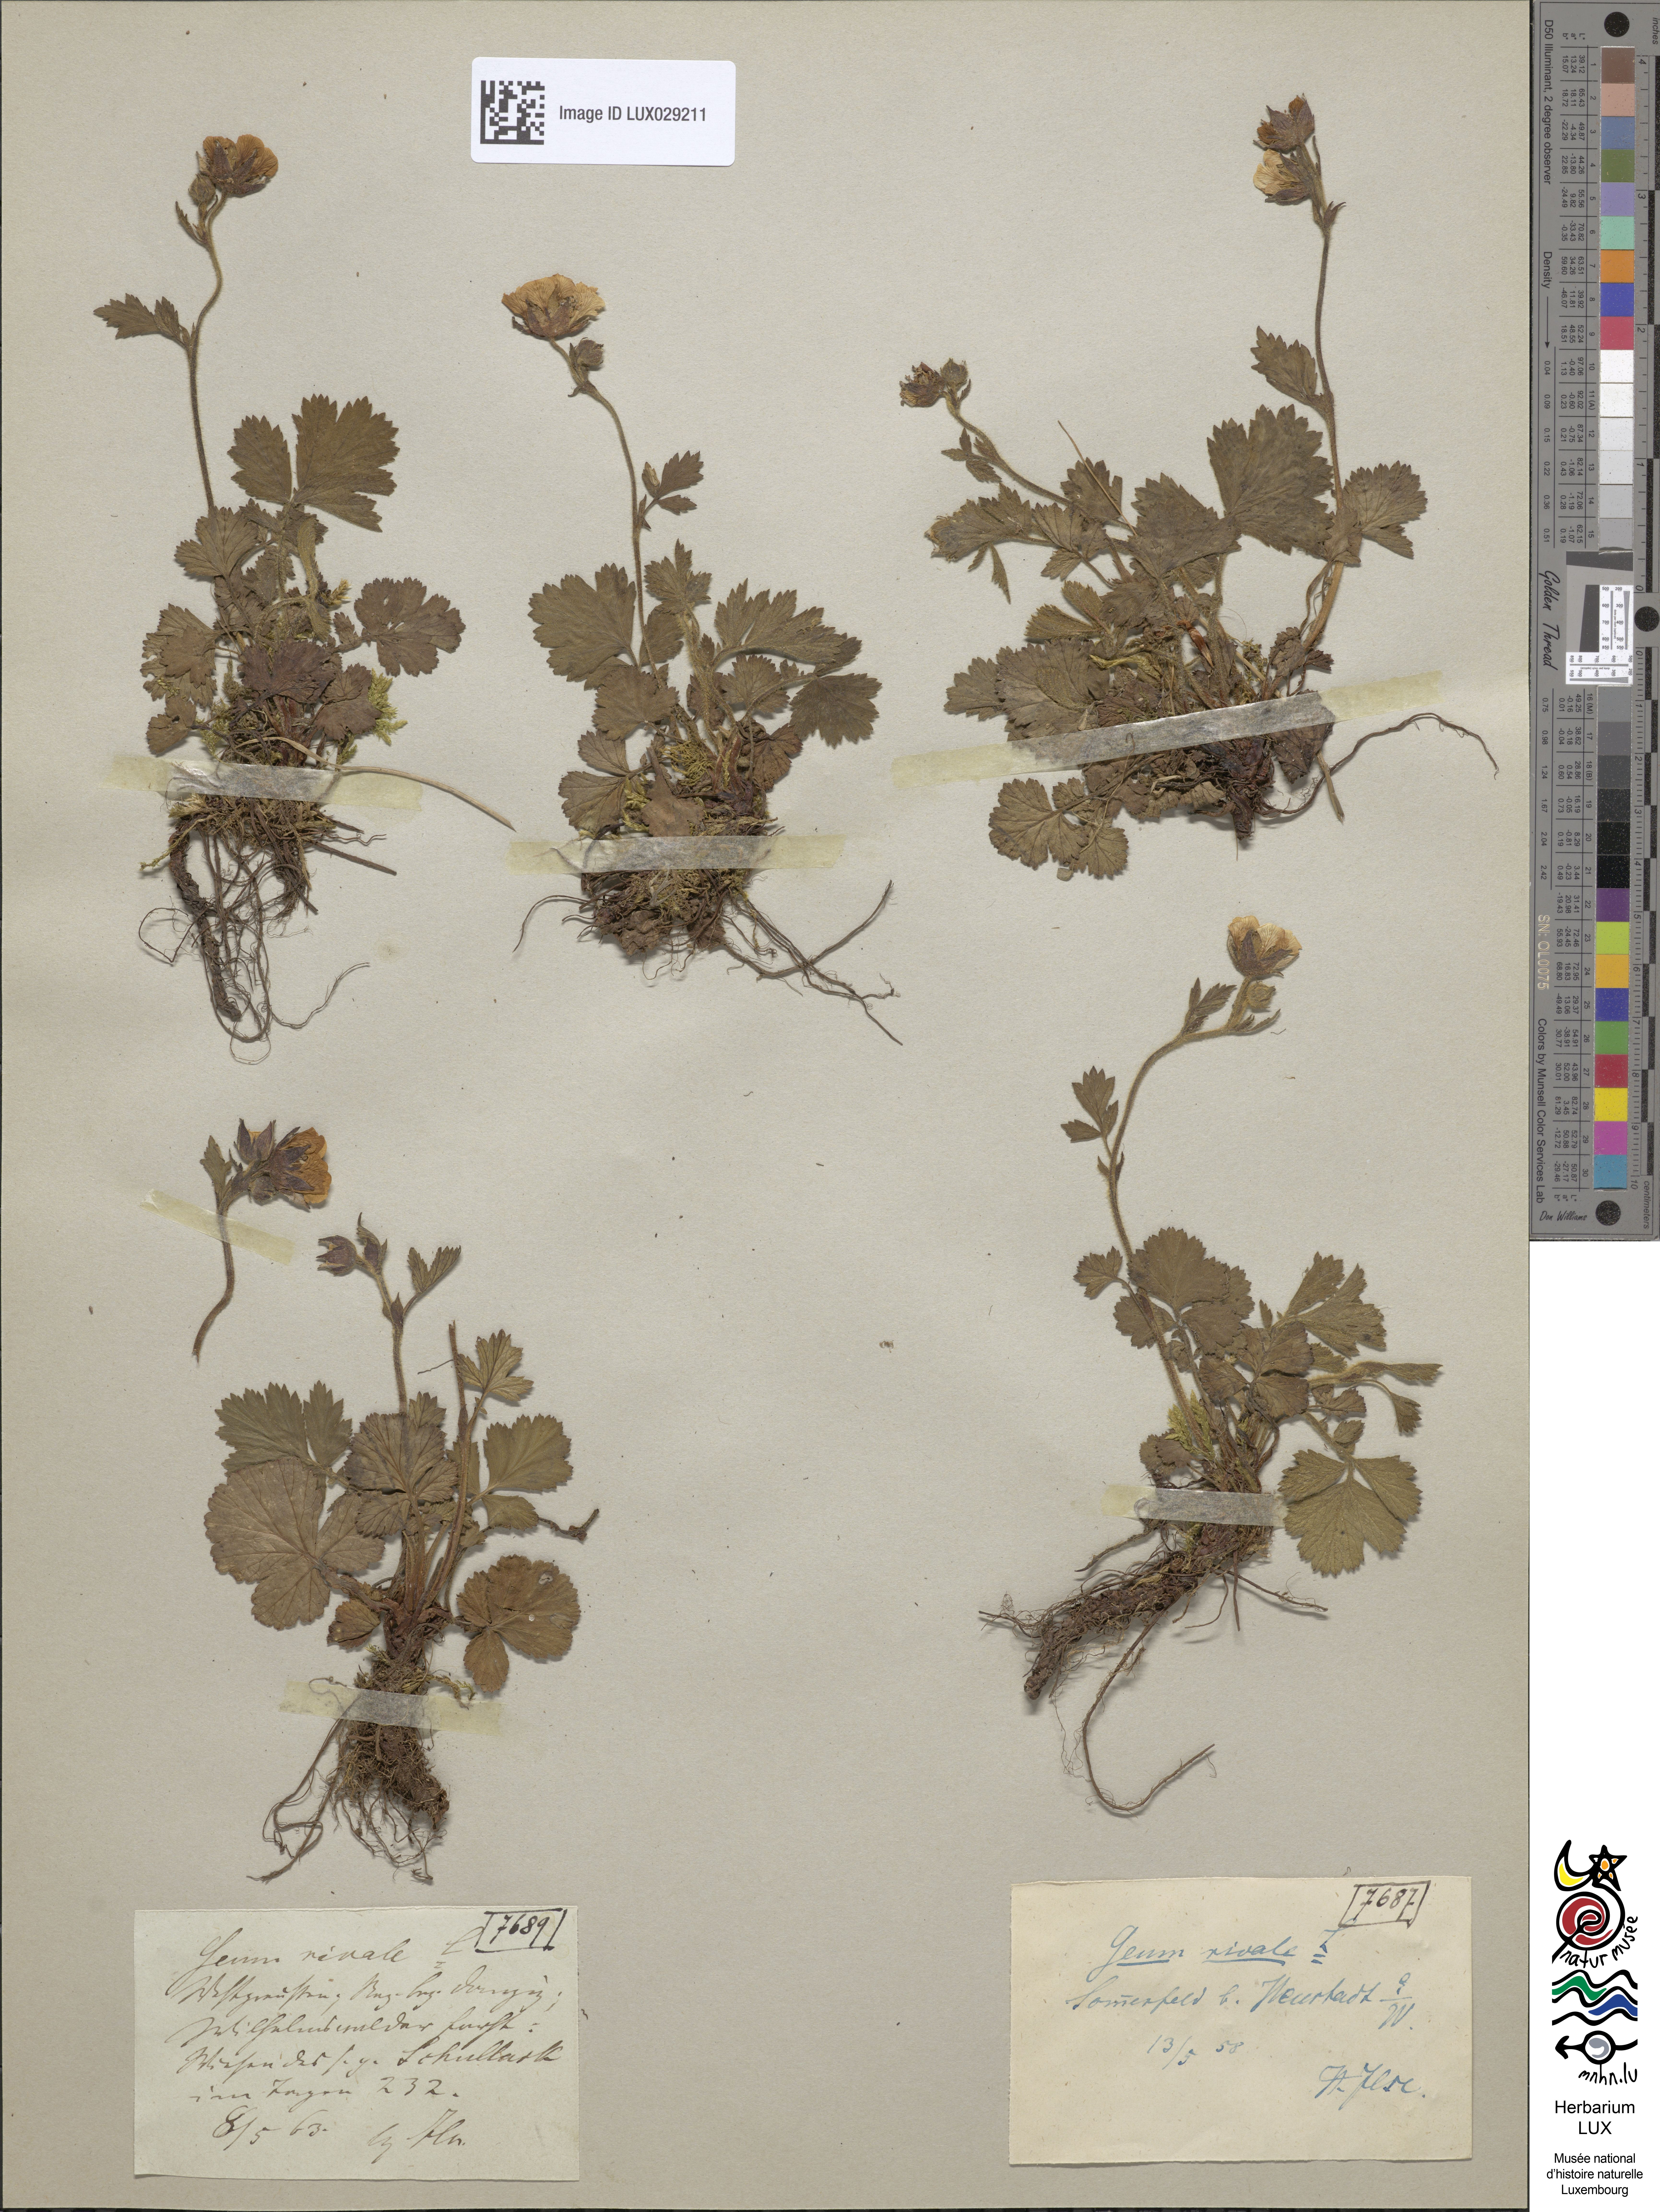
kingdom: Plantae
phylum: Tracheophyta
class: Magnoliopsida
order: Rosales
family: Rosaceae
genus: Geum
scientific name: Geum rivale
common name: Water avens
